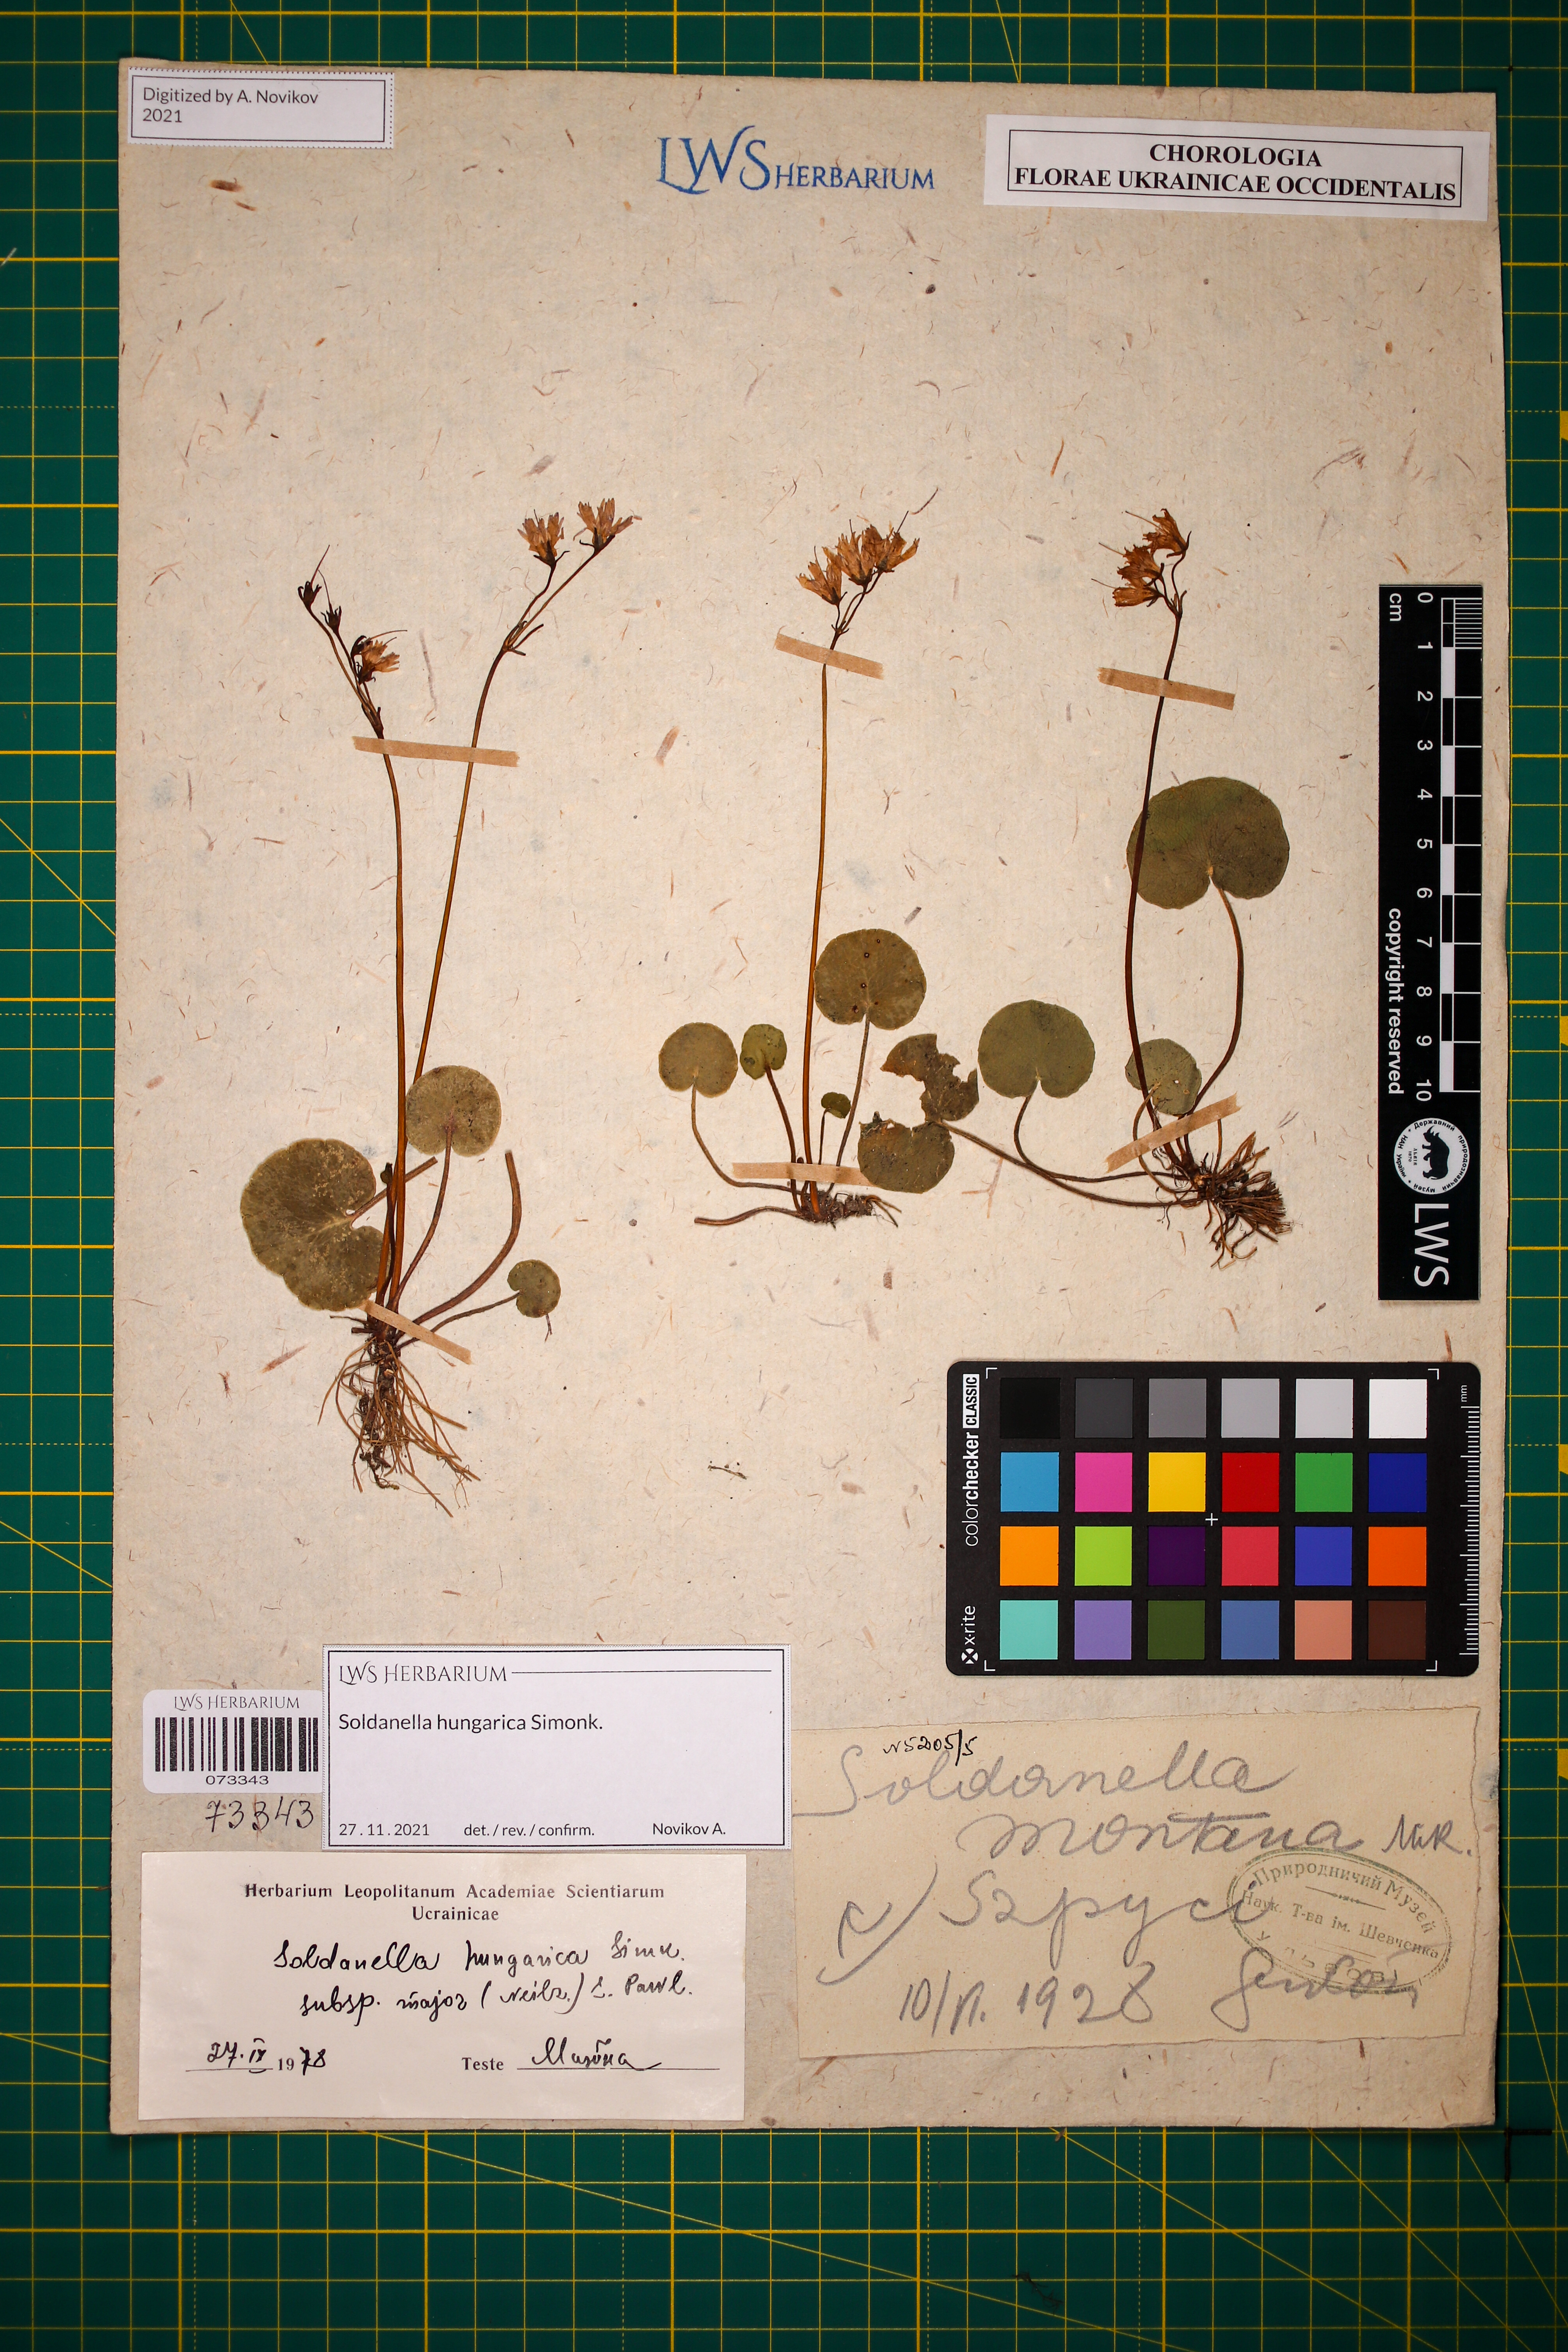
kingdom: Plantae
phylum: Tracheophyta
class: Magnoliopsida
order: Ericales
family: Primulaceae
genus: Soldanella
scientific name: Soldanella hungarica
